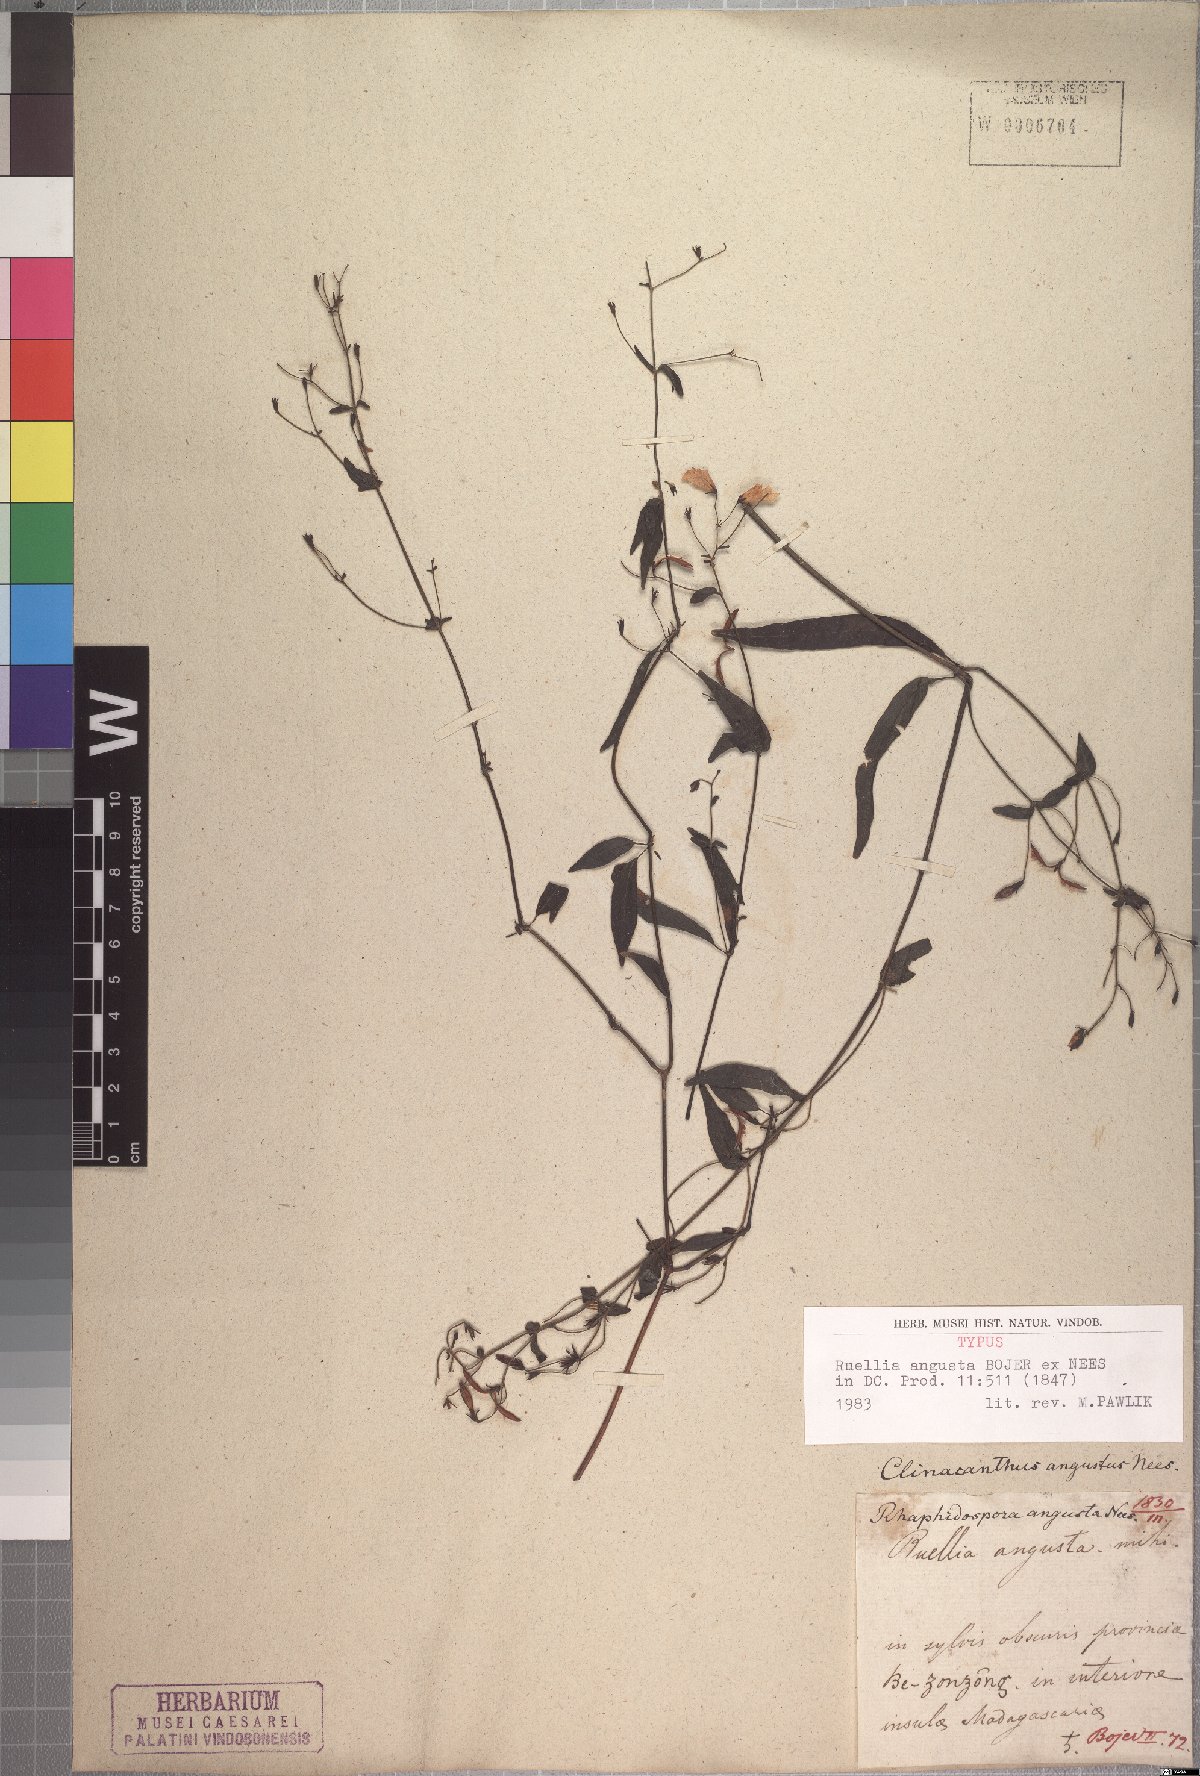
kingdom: Plantae
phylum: Tracheophyta
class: Magnoliopsida
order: Lamiales
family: Acanthaceae
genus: Isoglossa
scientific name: Isoglossa angusta
